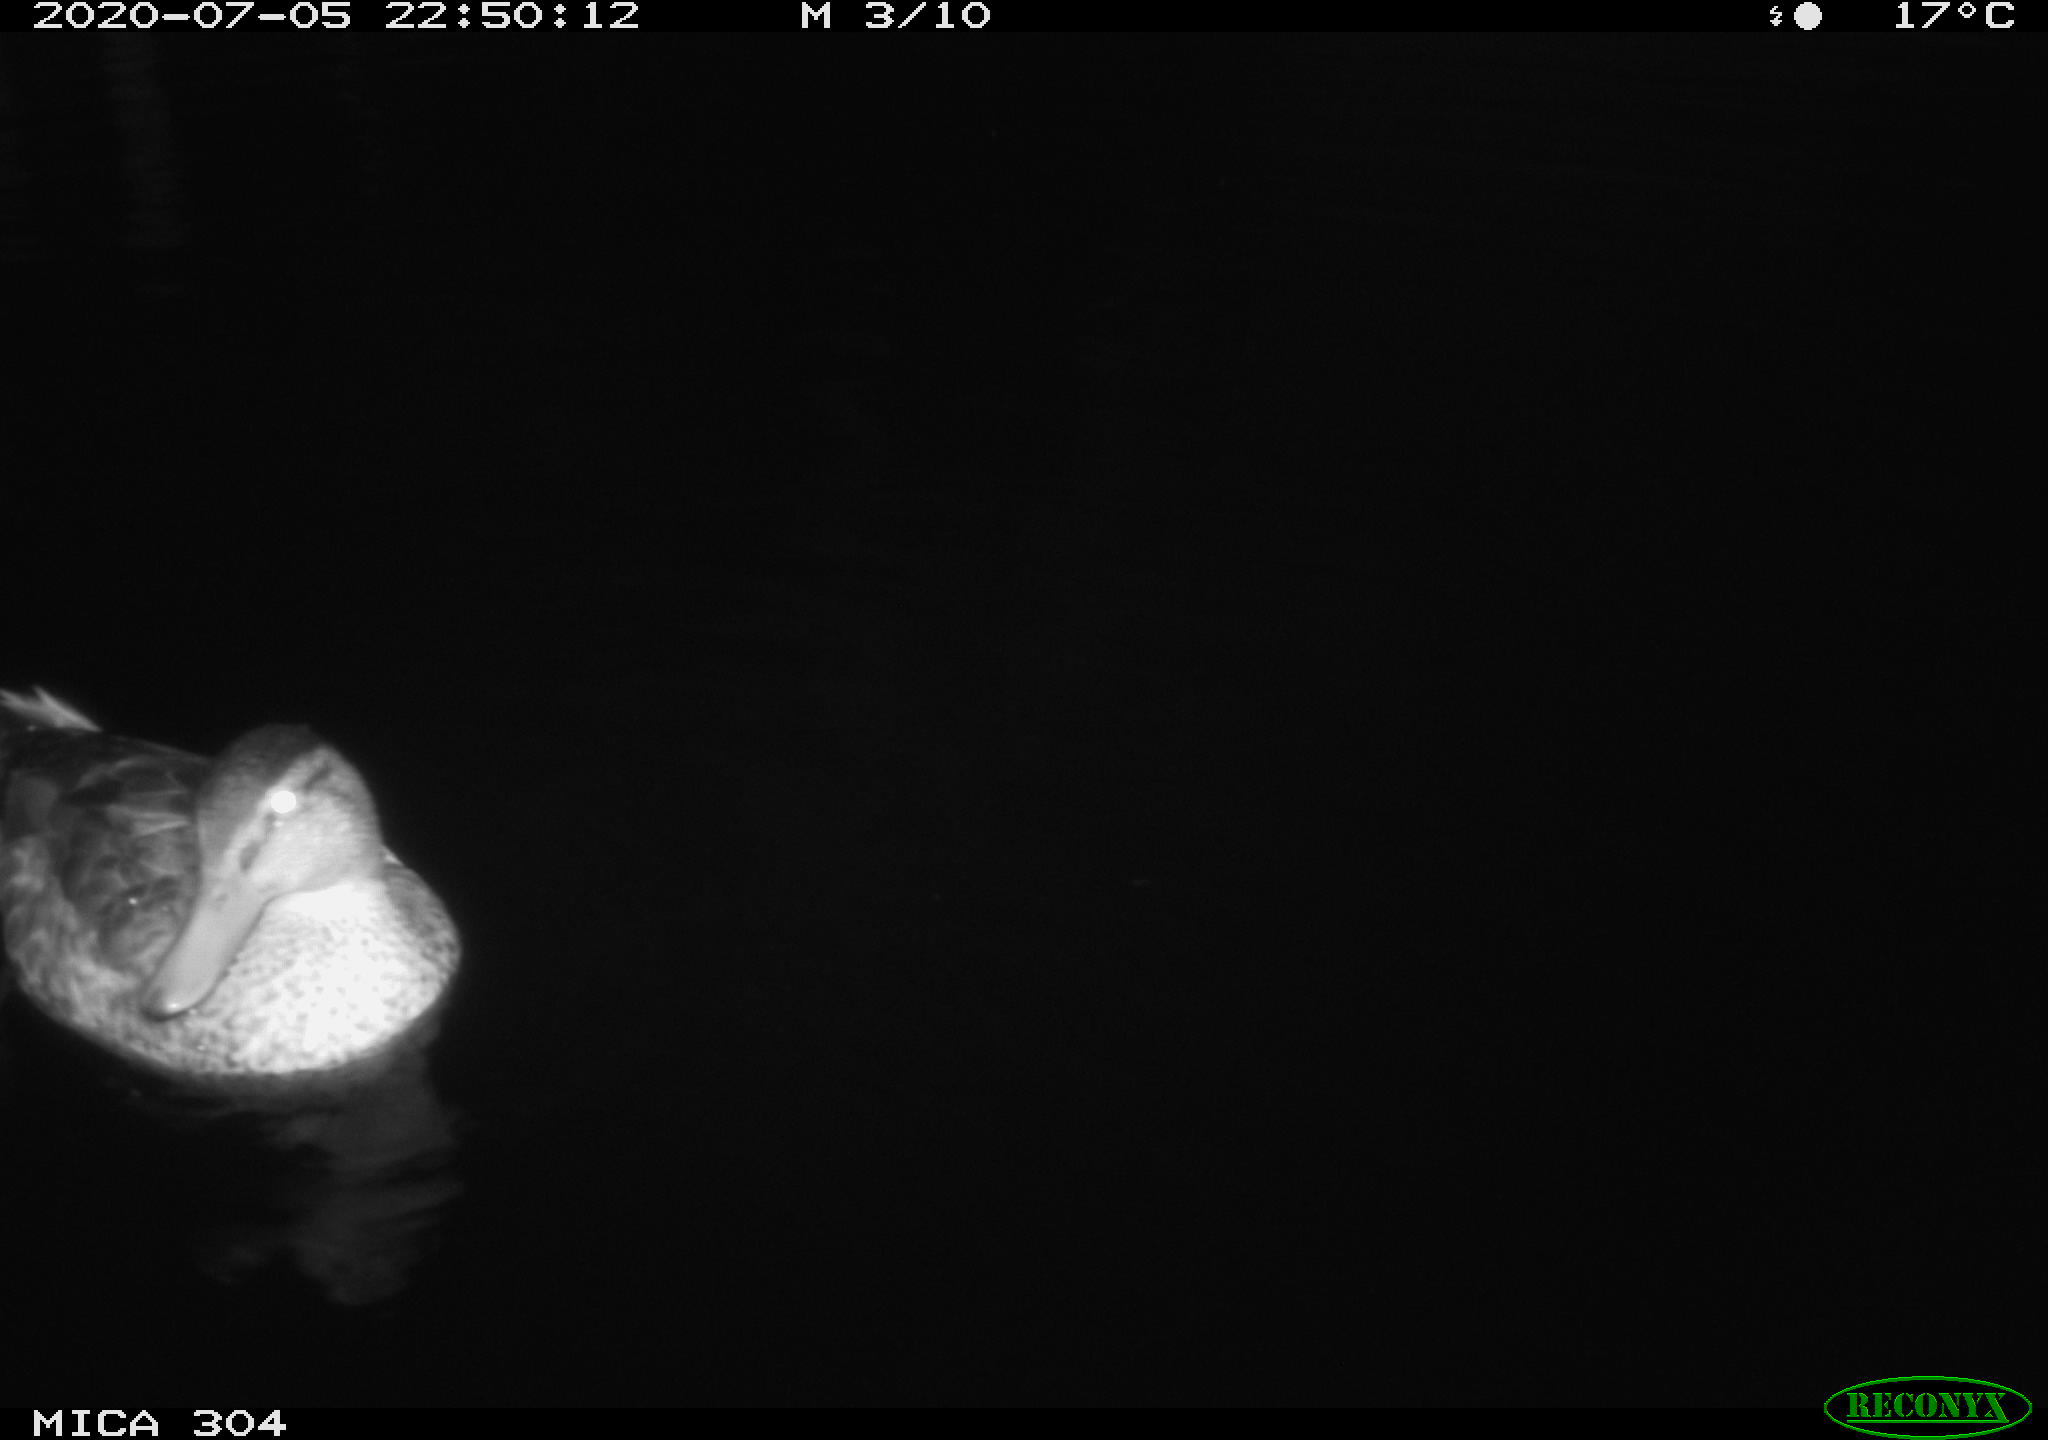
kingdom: Animalia
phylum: Chordata
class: Aves
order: Anseriformes
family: Anatidae
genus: Anas
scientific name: Anas platyrhynchos
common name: Mallard
